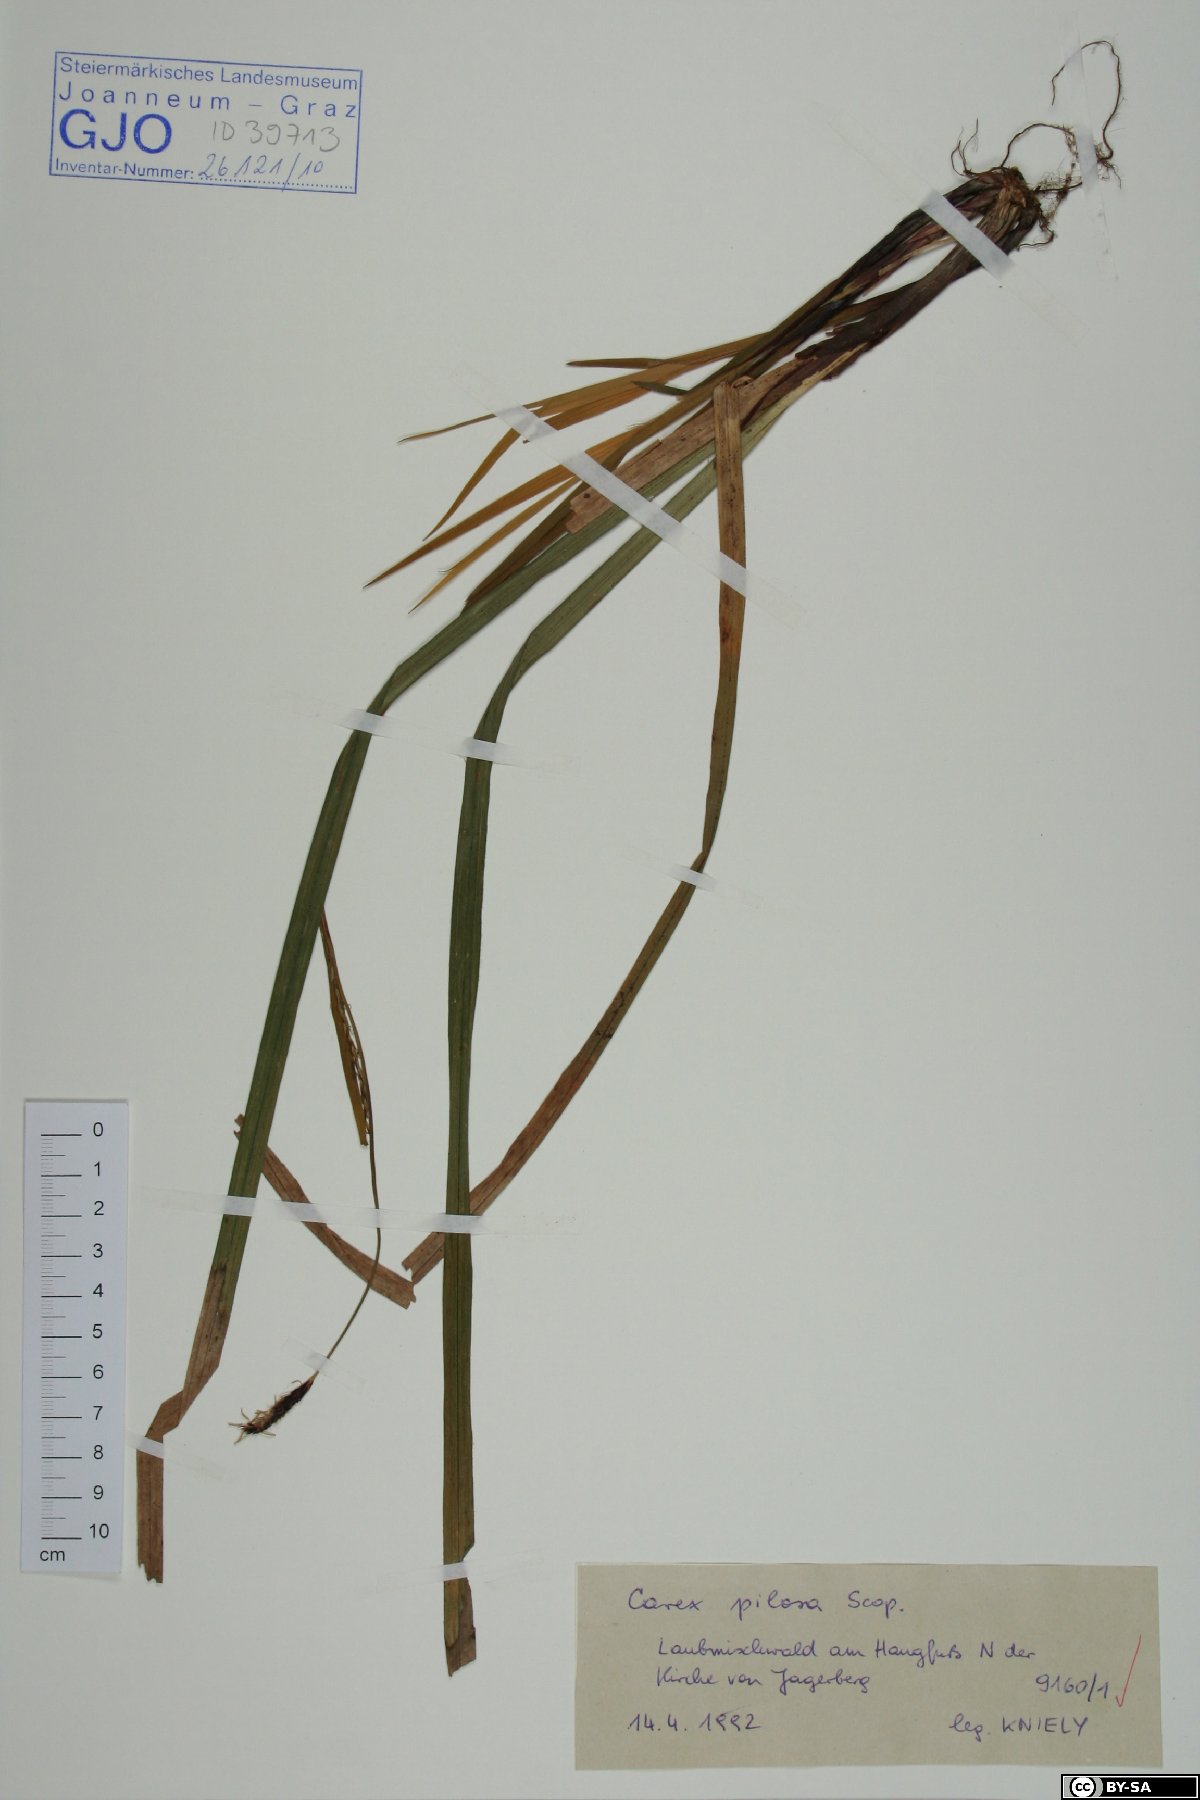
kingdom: Plantae
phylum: Tracheophyta
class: Liliopsida
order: Poales
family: Cyperaceae
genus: Carex
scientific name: Carex pilosa
